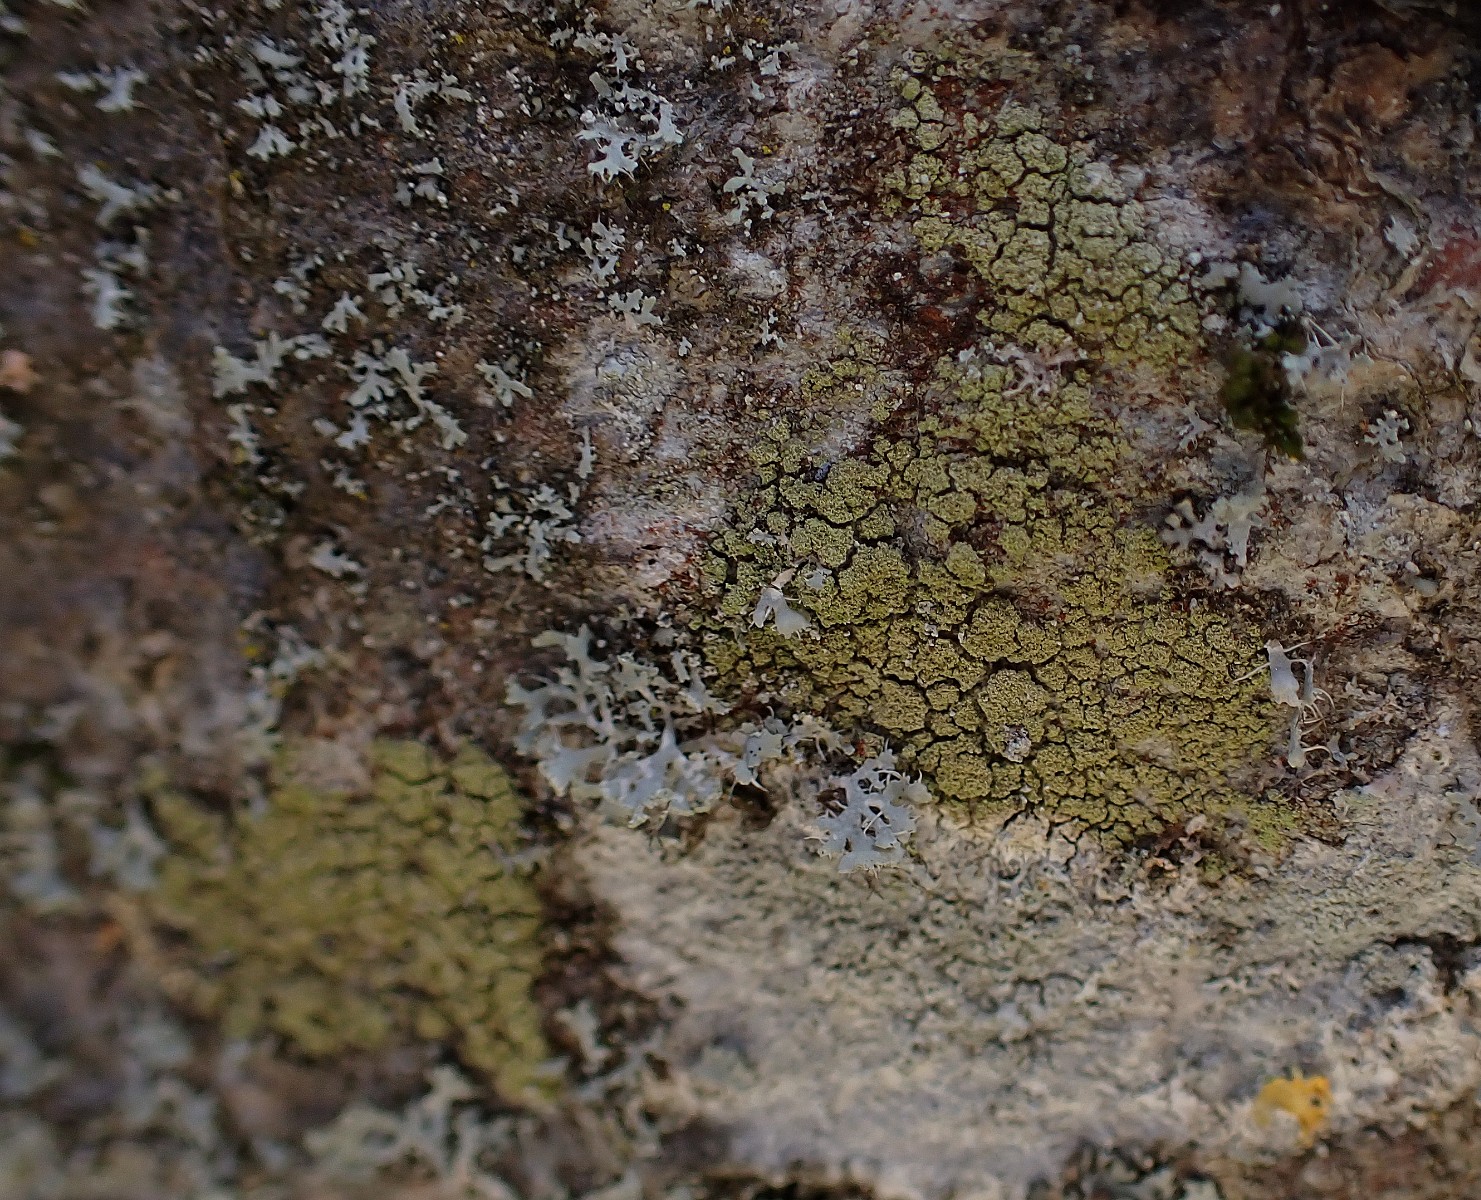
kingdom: Fungi
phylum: Ascomycota
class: Lecanoromycetes
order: Lecanorales
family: Lecanoraceae
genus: Pyrrhospora
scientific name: Pyrrhospora quernea
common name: almindelig rødskivelav
